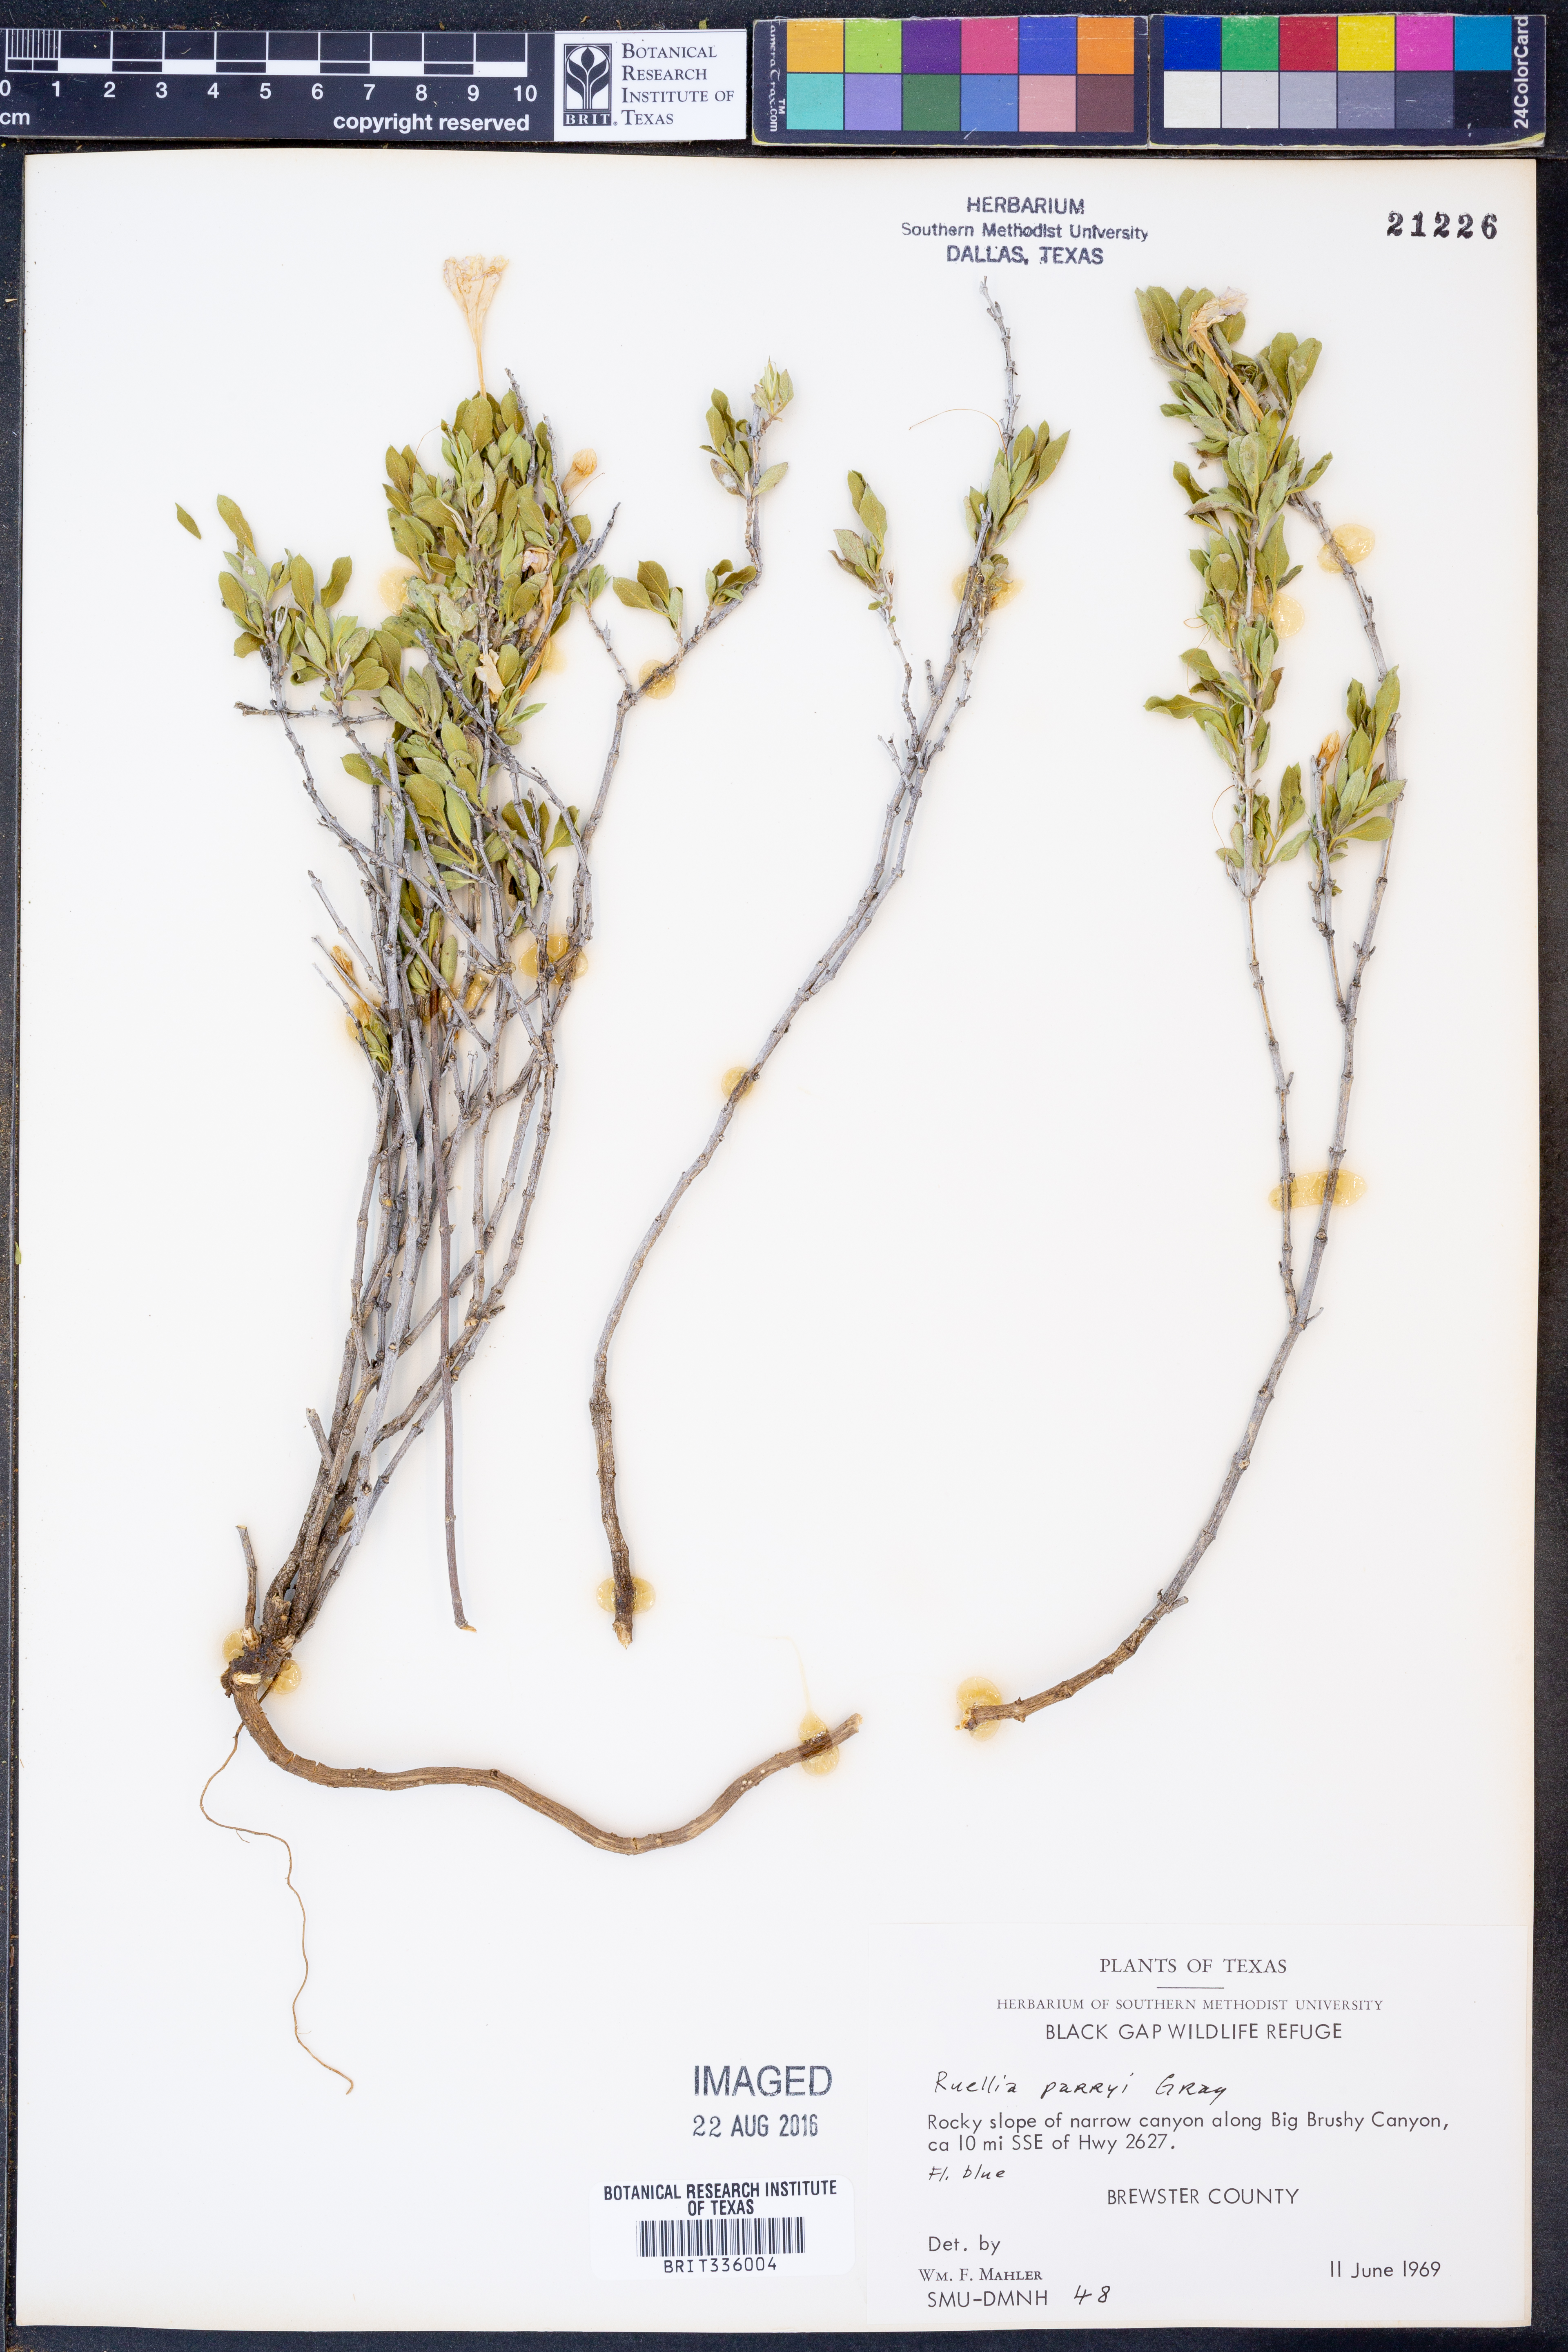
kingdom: Plantae
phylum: Tracheophyta
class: Magnoliopsida
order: Lamiales
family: Acanthaceae
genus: Ruellia
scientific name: Ruellia parryi
